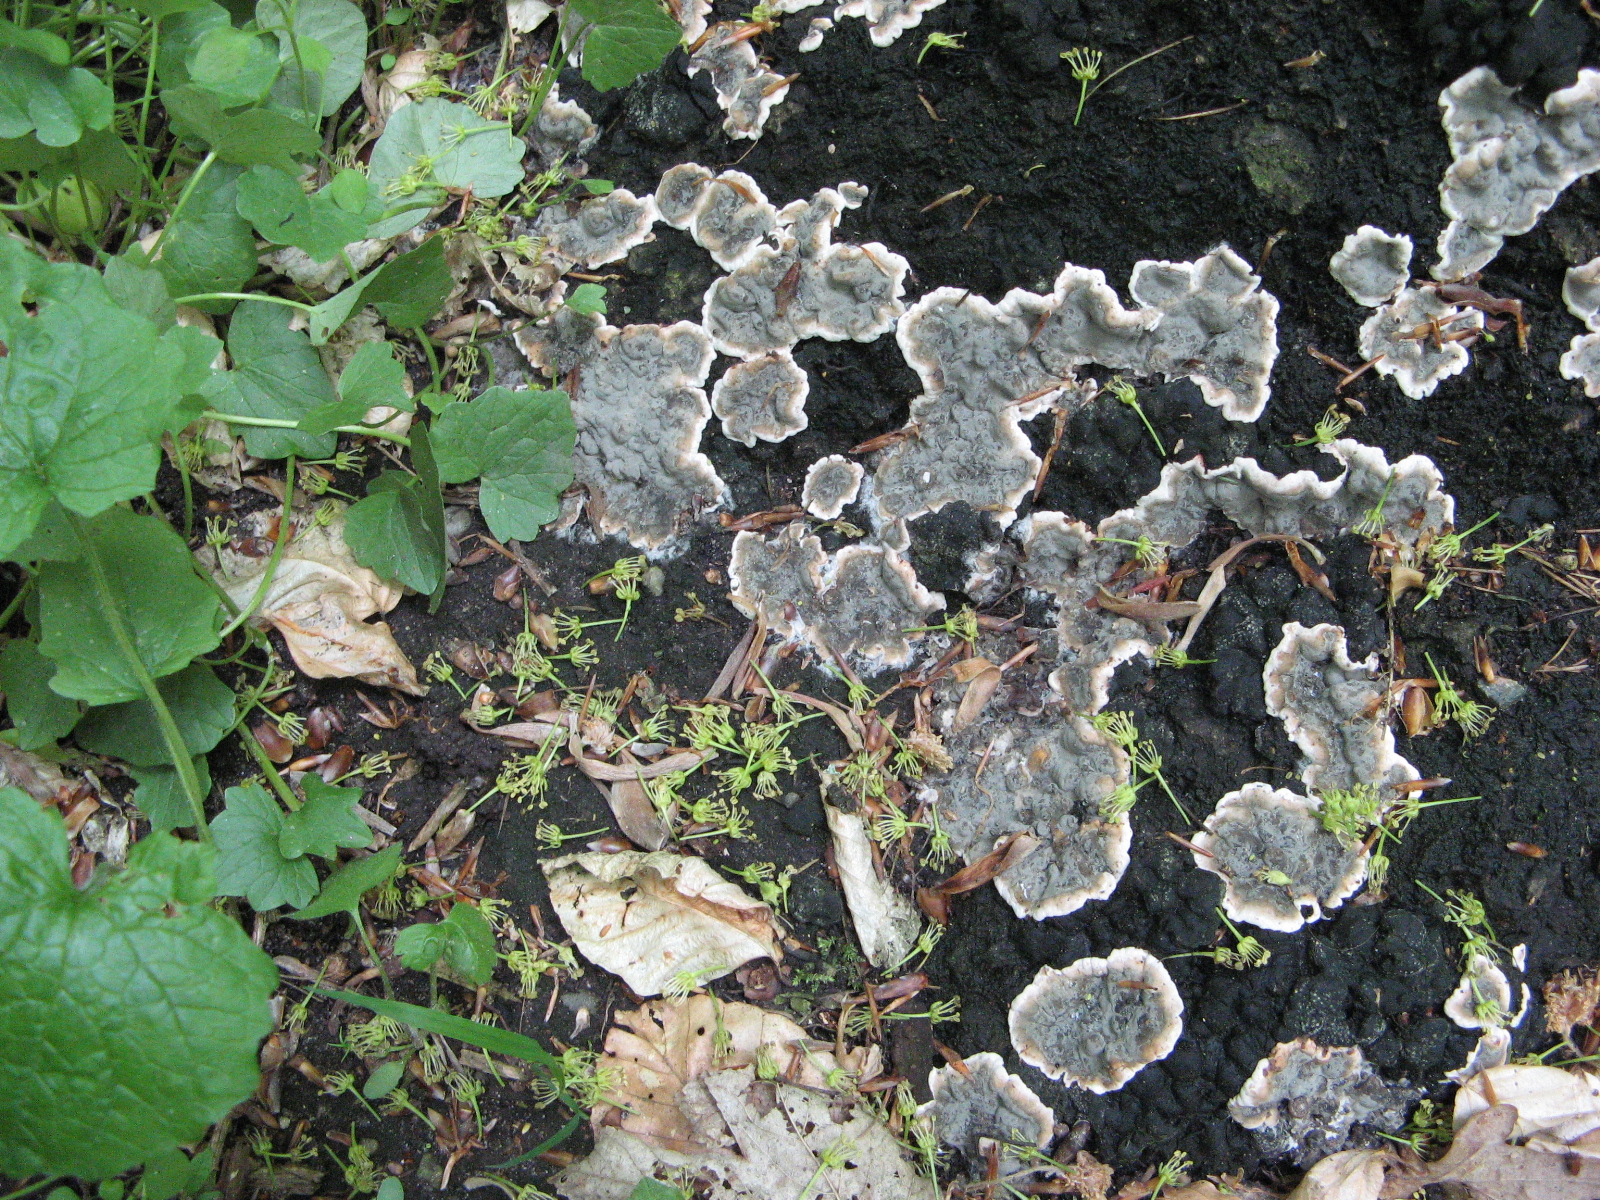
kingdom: Fungi
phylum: Ascomycota
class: Sordariomycetes
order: Xylariales
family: Xylariaceae
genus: Kretzschmaria
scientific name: Kretzschmaria deusta
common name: stor kulsvamp
